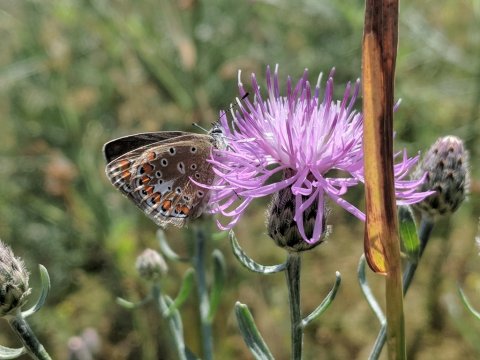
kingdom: Animalia
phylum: Arthropoda
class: Insecta
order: Lepidoptera
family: Lycaenidae
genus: Polyommatus
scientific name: Polyommatus icarus
